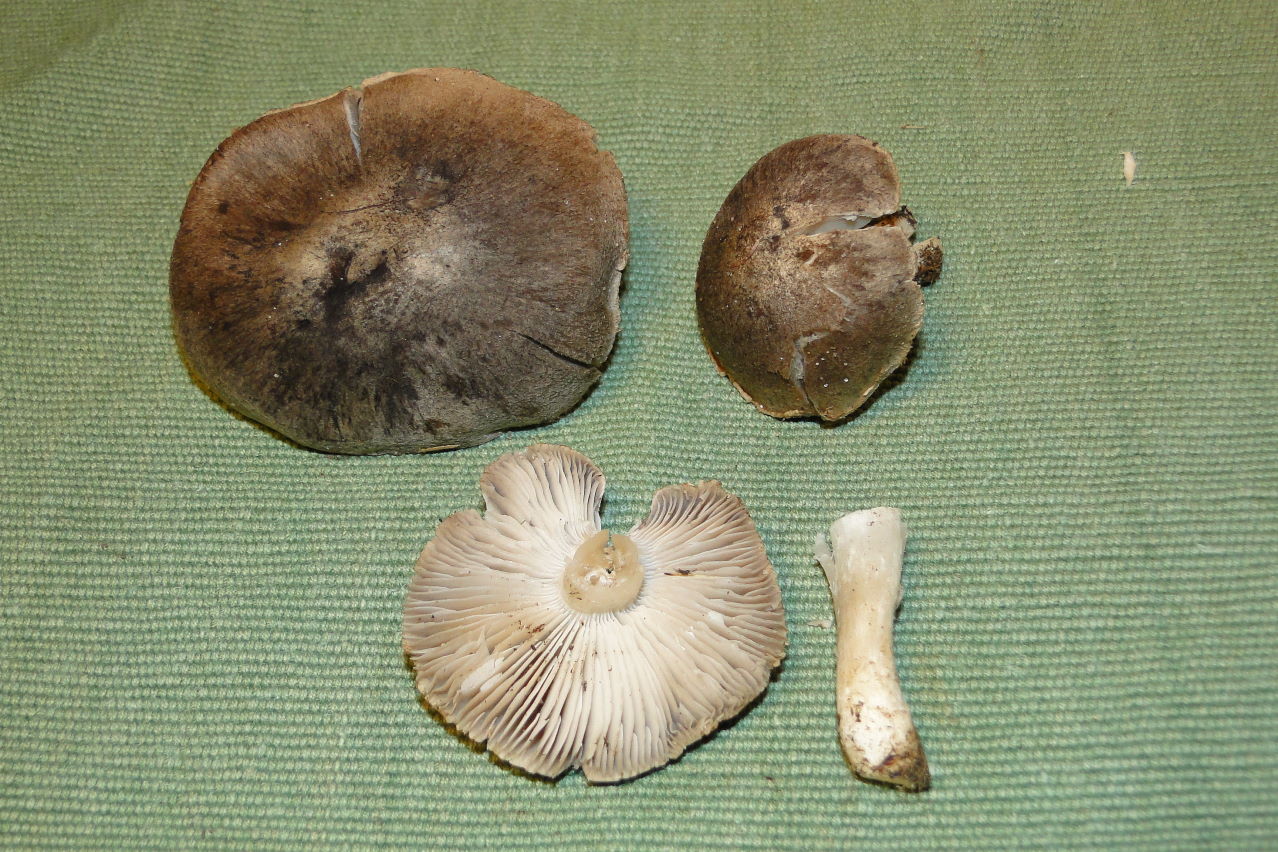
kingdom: Fungi
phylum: Basidiomycota
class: Agaricomycetes
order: Agaricales
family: Tricholomataceae
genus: Tricholoma
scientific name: Tricholoma terreum
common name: jordfarvet ridderhat
